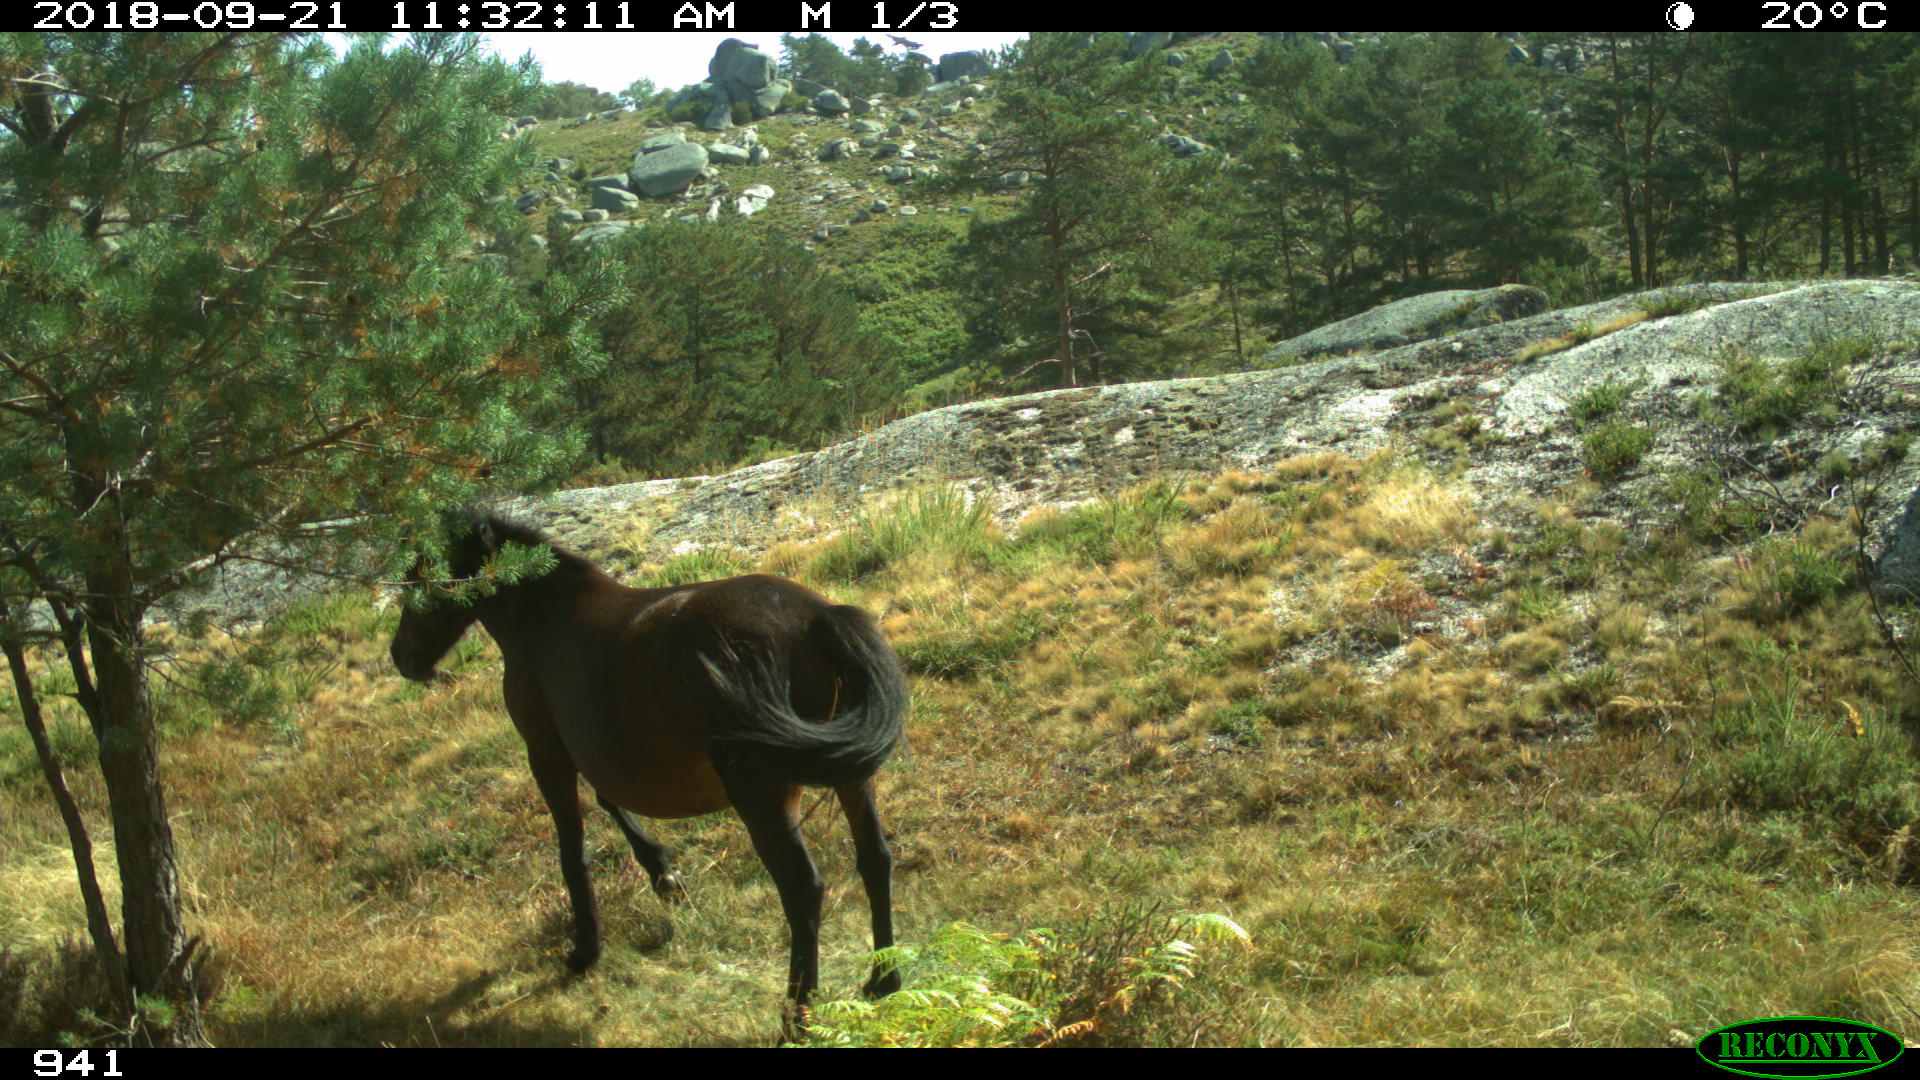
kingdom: Animalia
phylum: Chordata
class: Mammalia
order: Perissodactyla
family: Equidae
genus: Equus
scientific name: Equus caballus
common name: Horse
